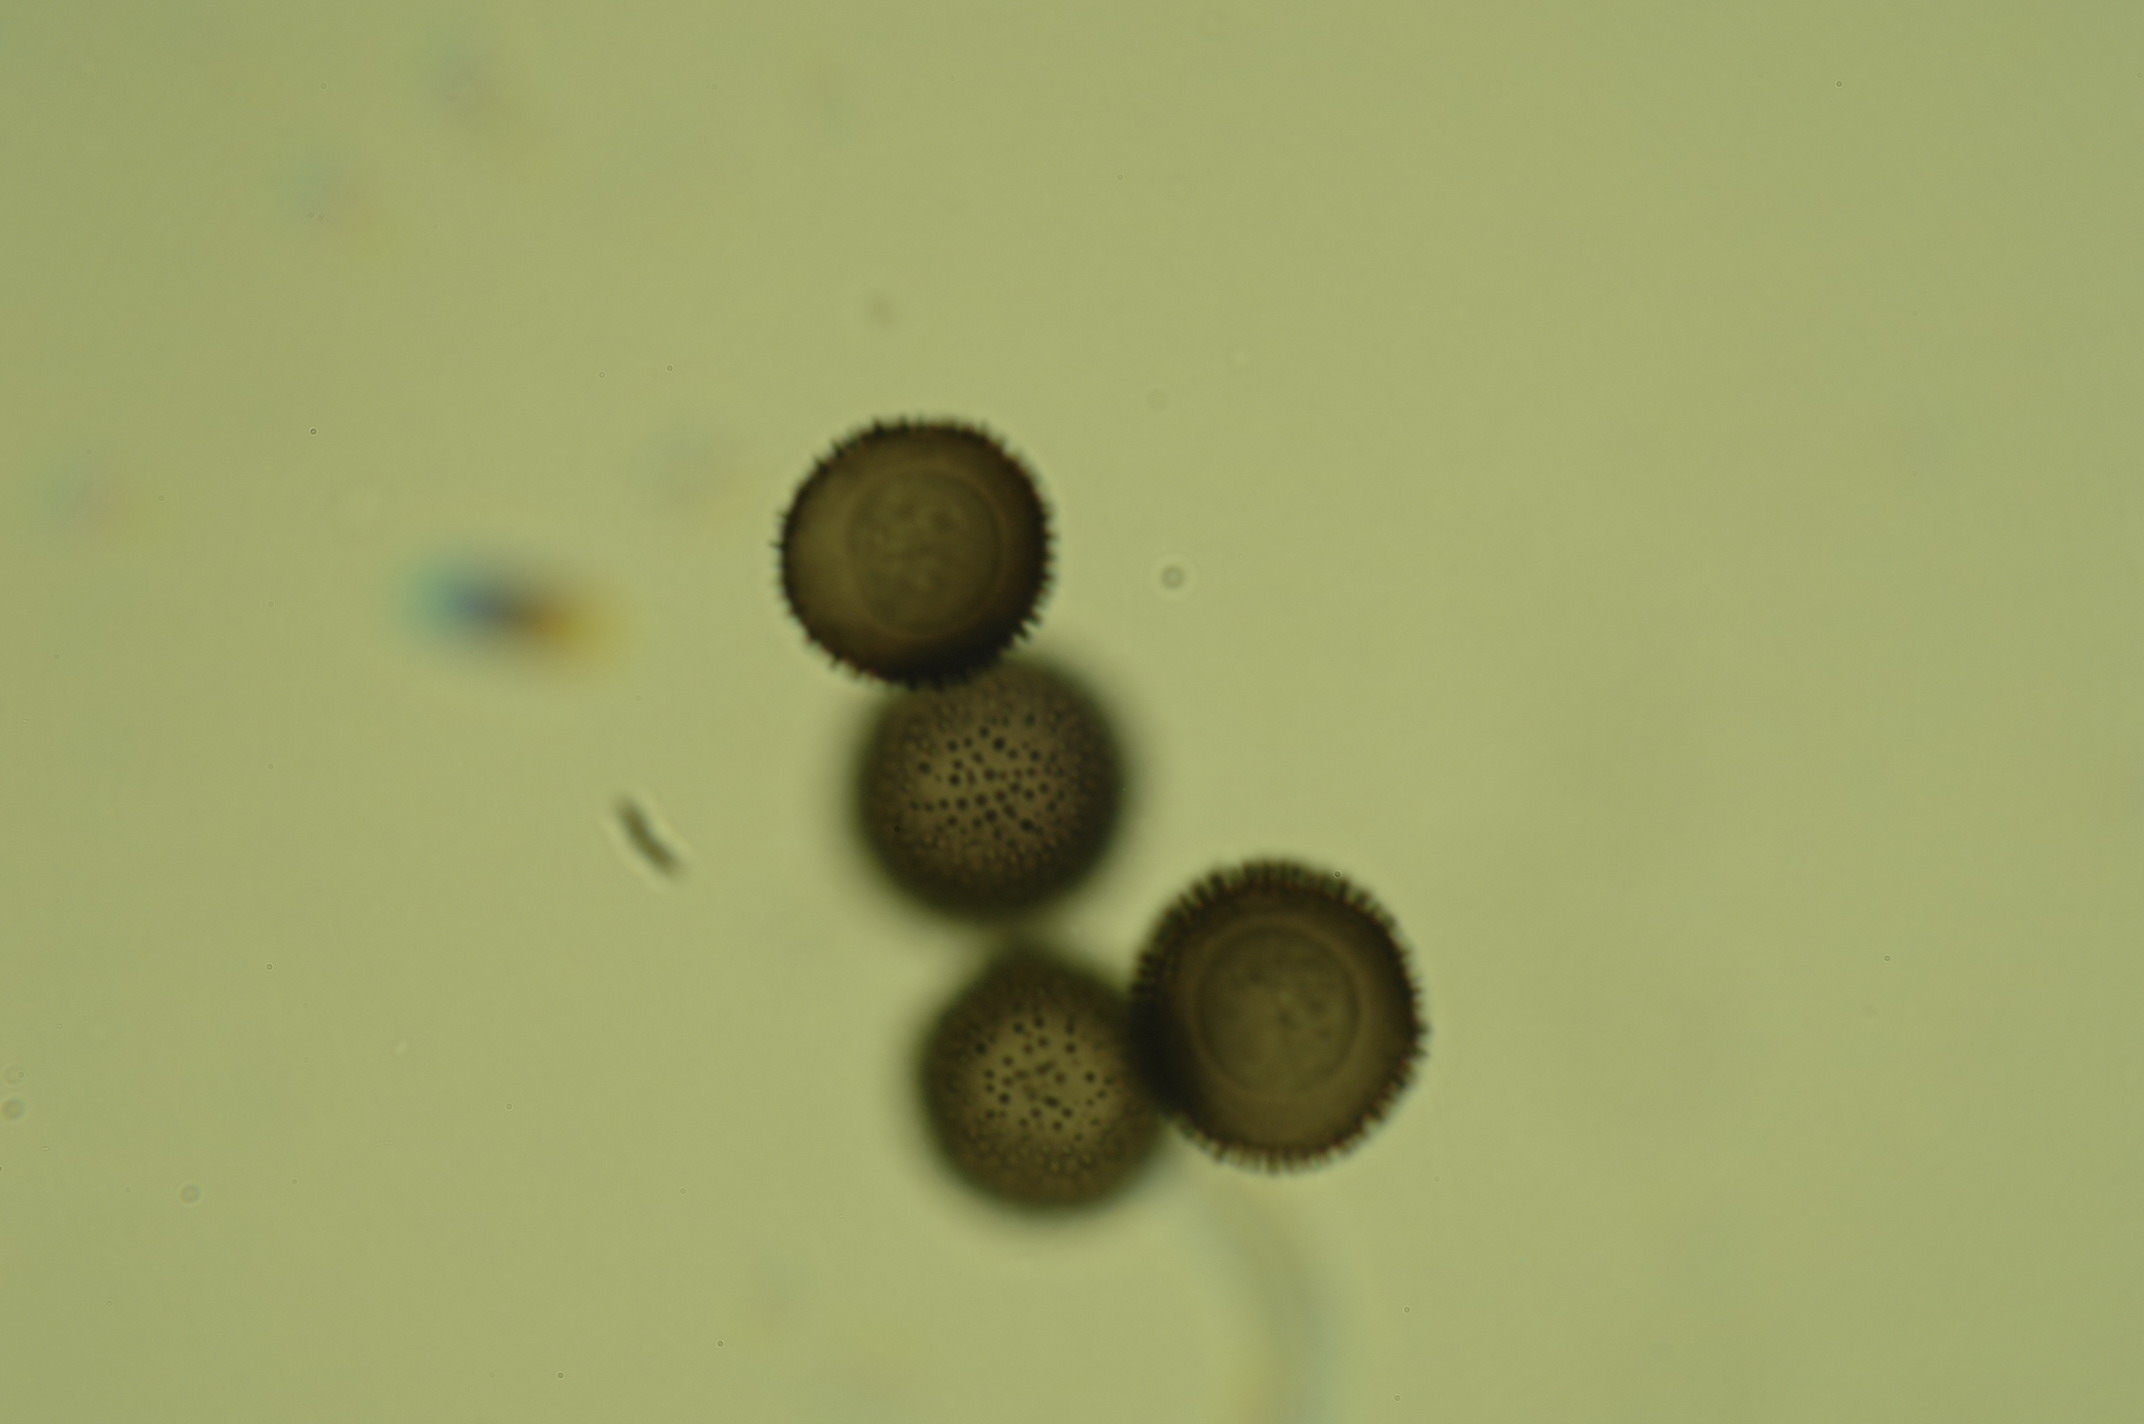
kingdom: Protozoa
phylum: Mycetozoa
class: Myxomycetes
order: Stemonitidales
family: Stemonitidaceae
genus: Lamproderma
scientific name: Lamproderma granulosum
